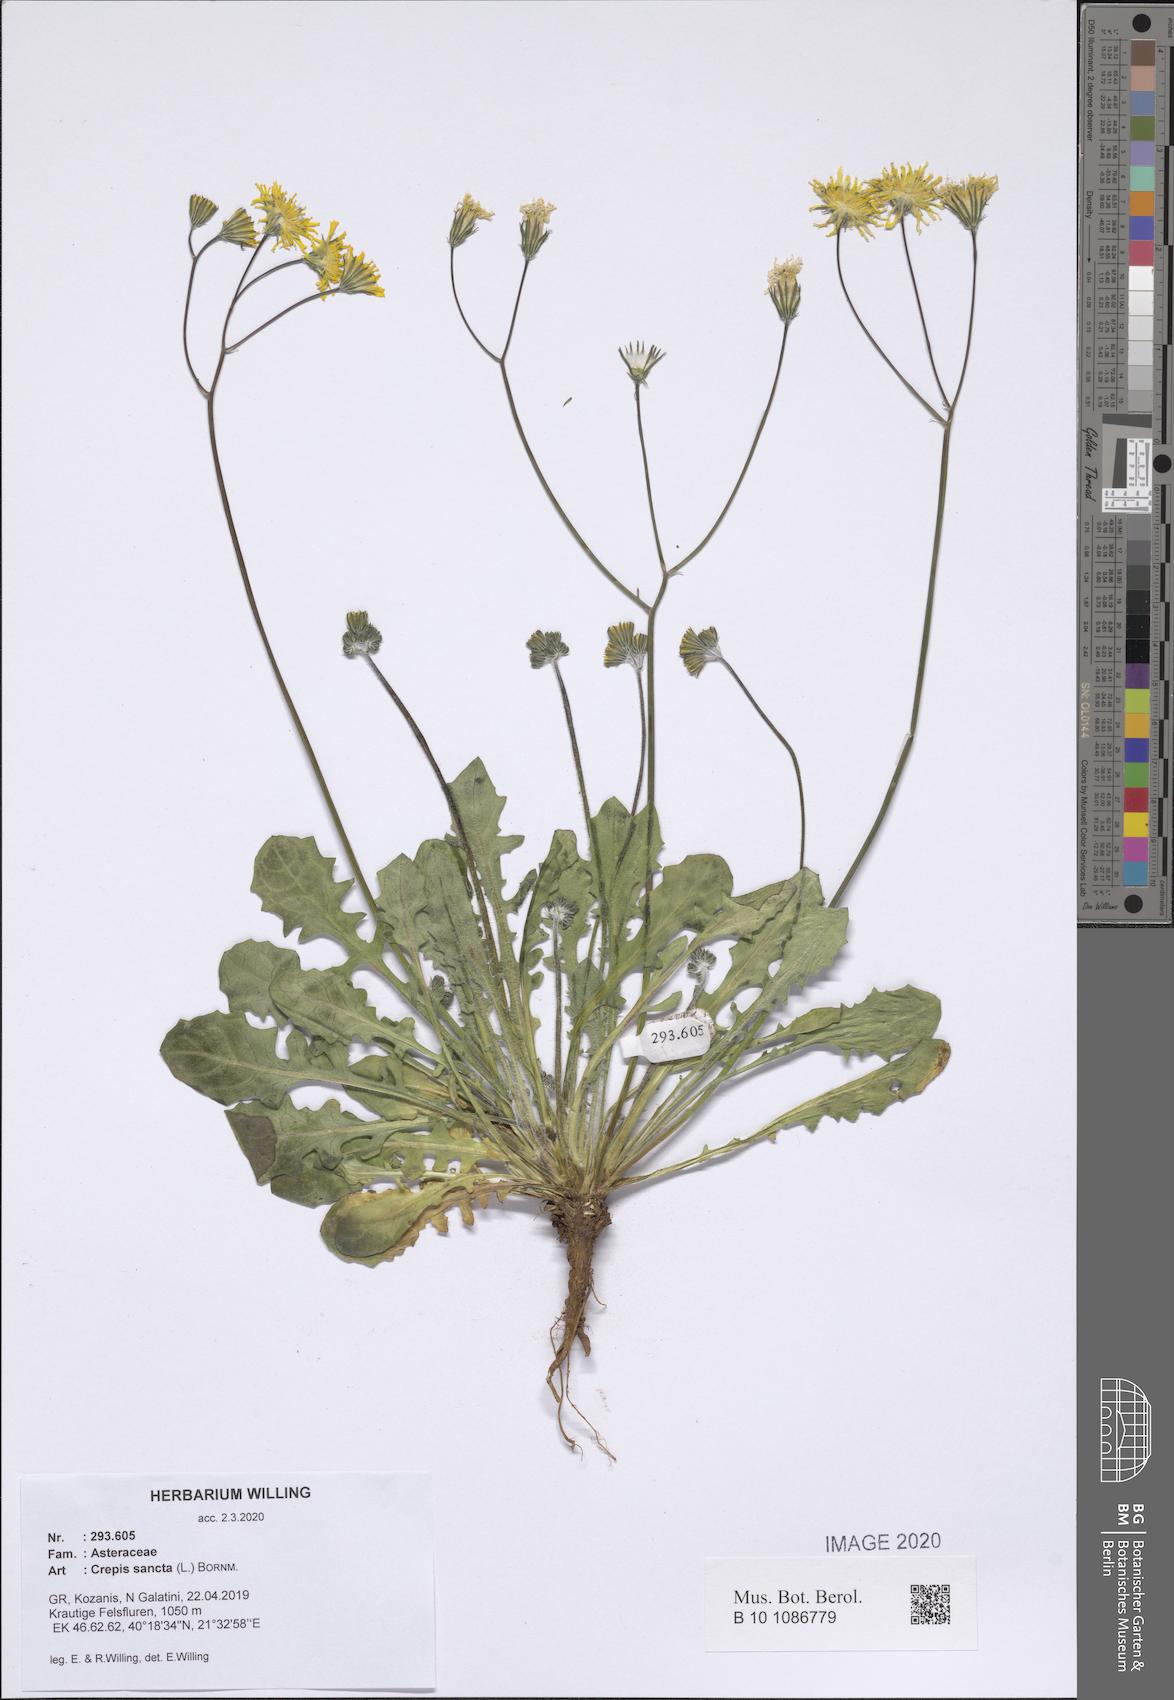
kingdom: Plantae
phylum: Tracheophyta
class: Magnoliopsida
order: Asterales
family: Asteraceae
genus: Crepis
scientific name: Crepis sancta
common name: Hawk's-beard
